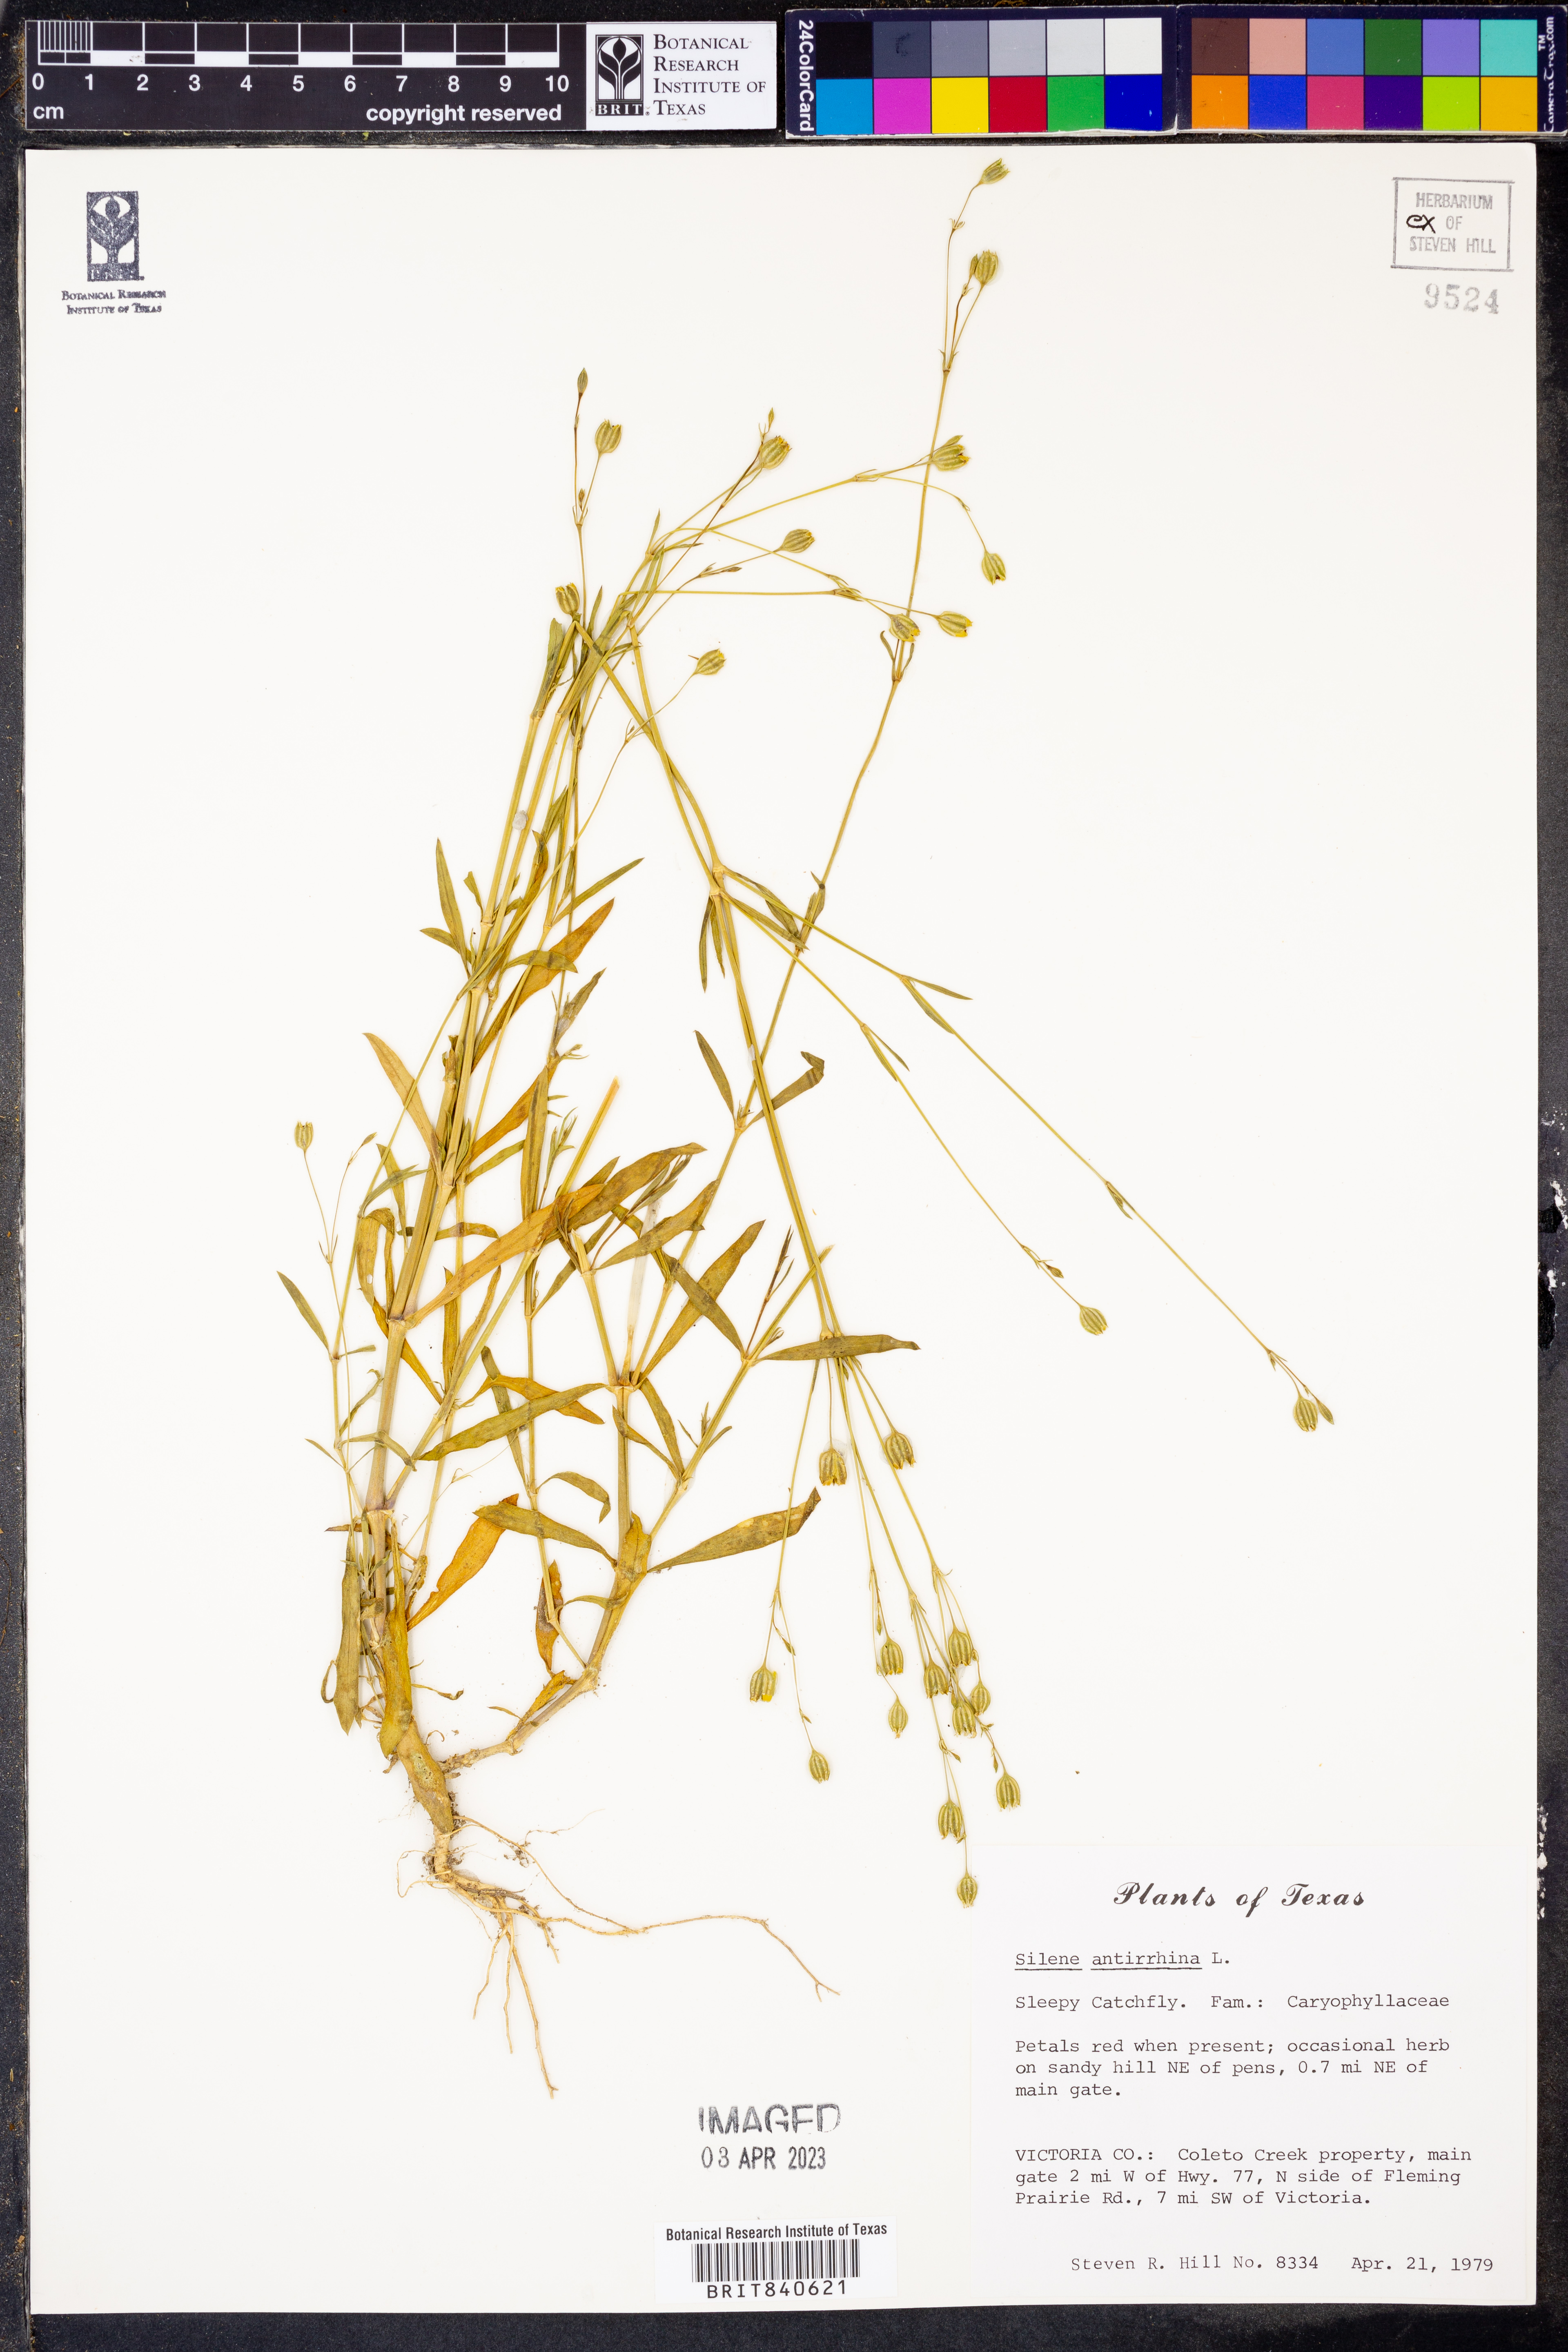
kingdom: Plantae
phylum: Tracheophyta
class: Magnoliopsida
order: Caryophyllales
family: Caryophyllaceae
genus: Silene
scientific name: Silene antirrhina
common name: Sleepy catchfly
